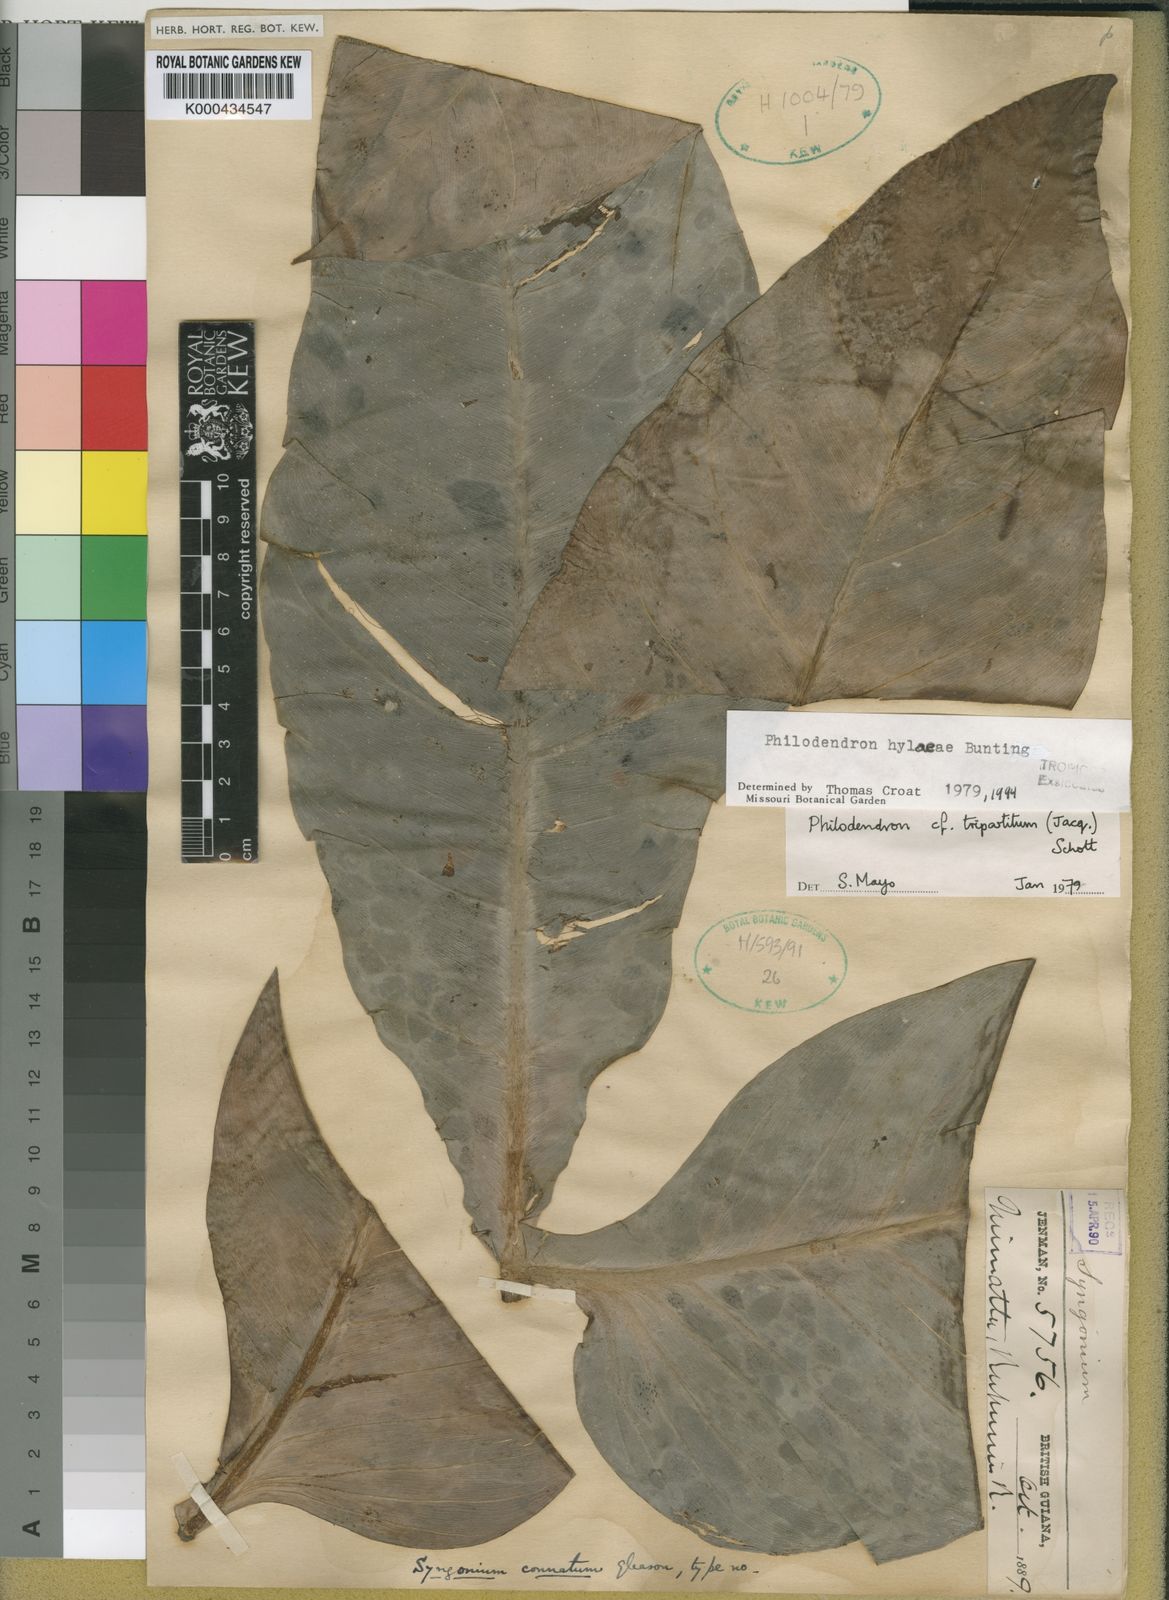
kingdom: Plantae
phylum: Tracheophyta
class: Liliopsida
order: Alismatales
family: Araceae
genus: Philodendron
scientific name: Philodendron hylaeae
